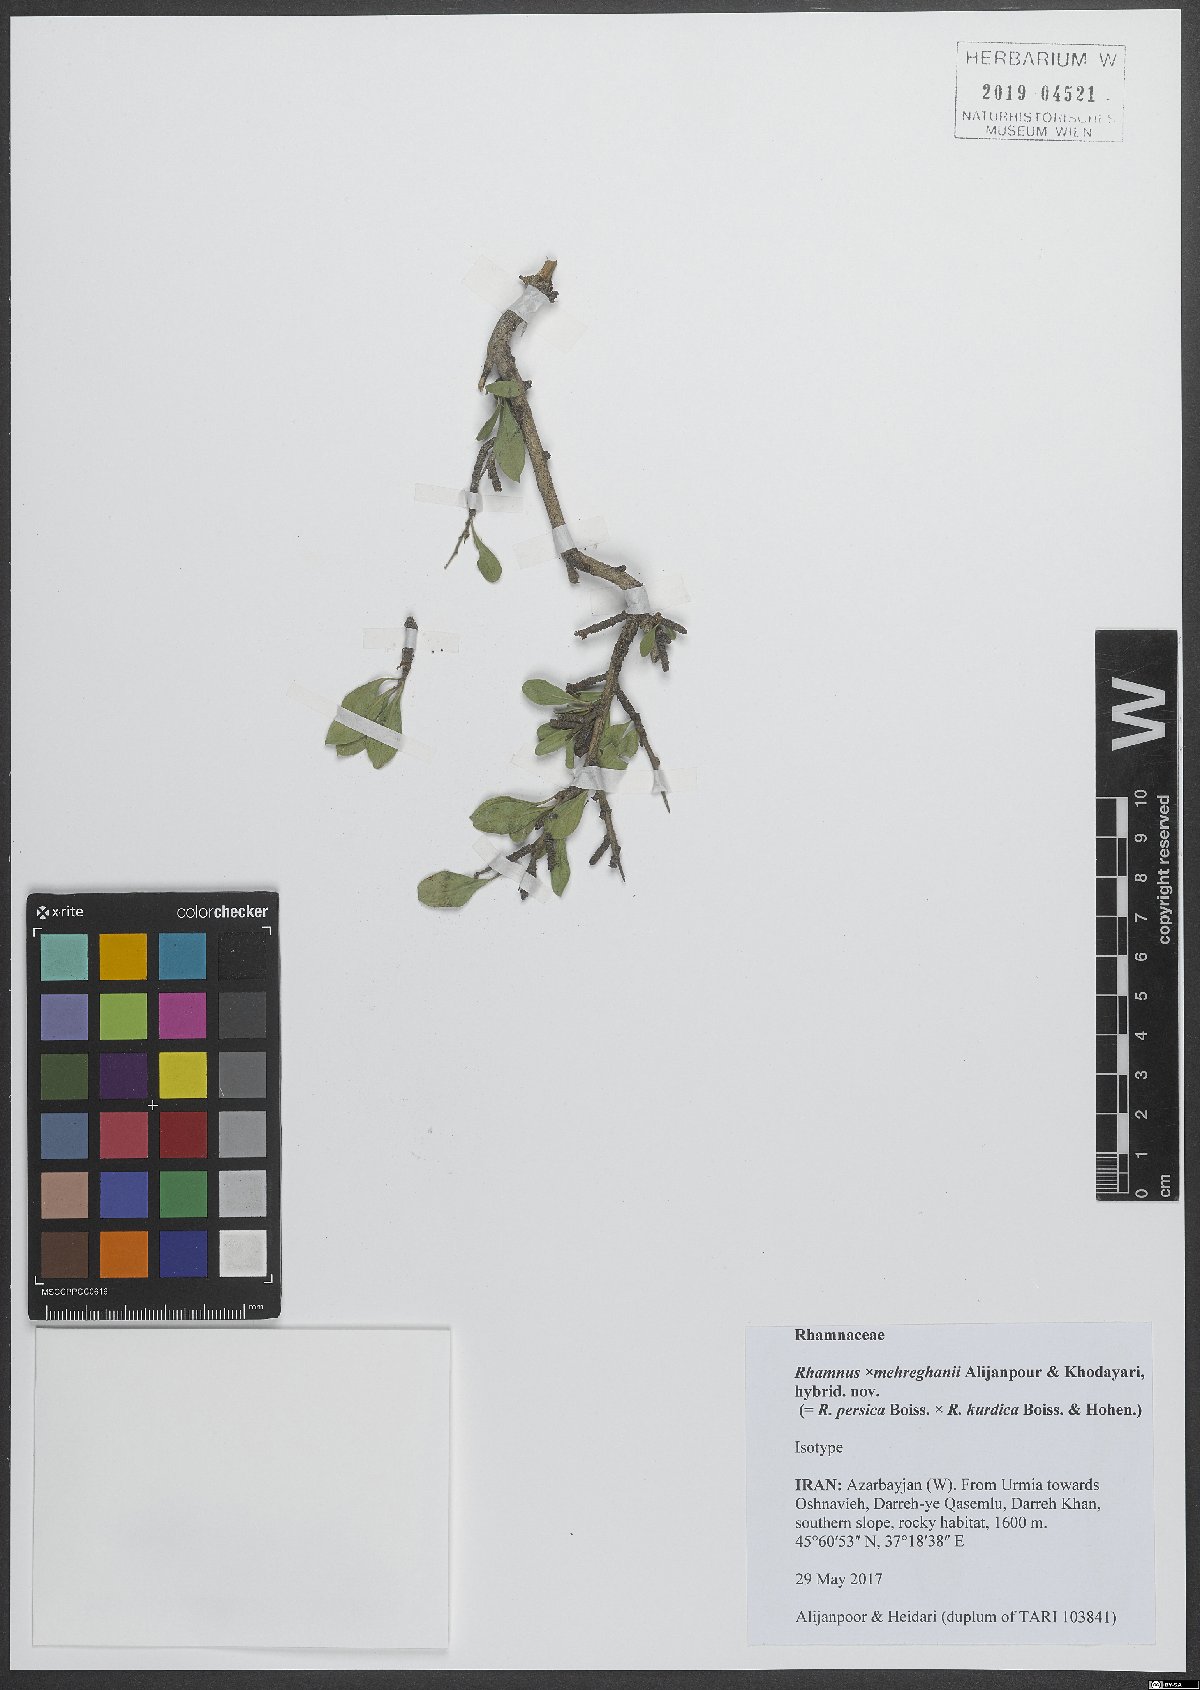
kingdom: Plantae
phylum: Tracheophyta
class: Magnoliopsida
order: Rosales
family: Rhamnaceae
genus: Rhamnus
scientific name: Rhamnus
